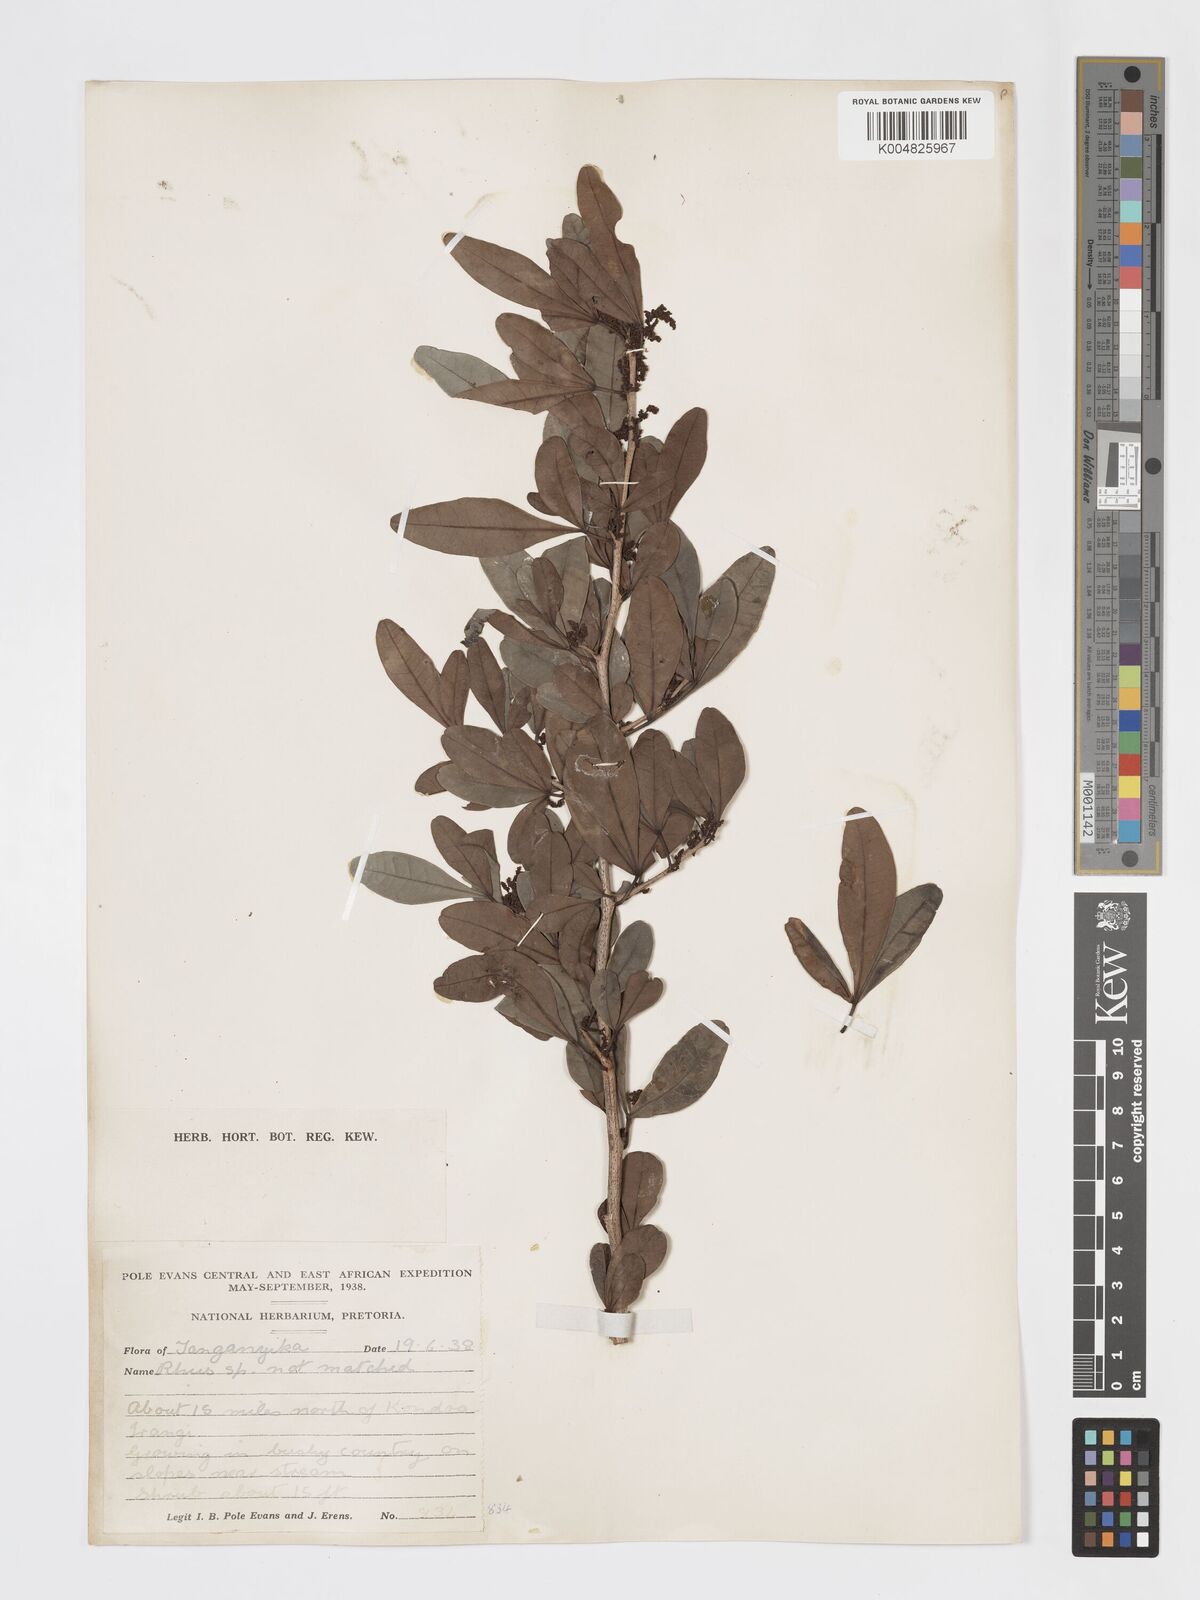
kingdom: Plantae
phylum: Tracheophyta
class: Magnoliopsida
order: Sapindales
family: Anacardiaceae
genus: Searsia
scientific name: Searsia natalensis
